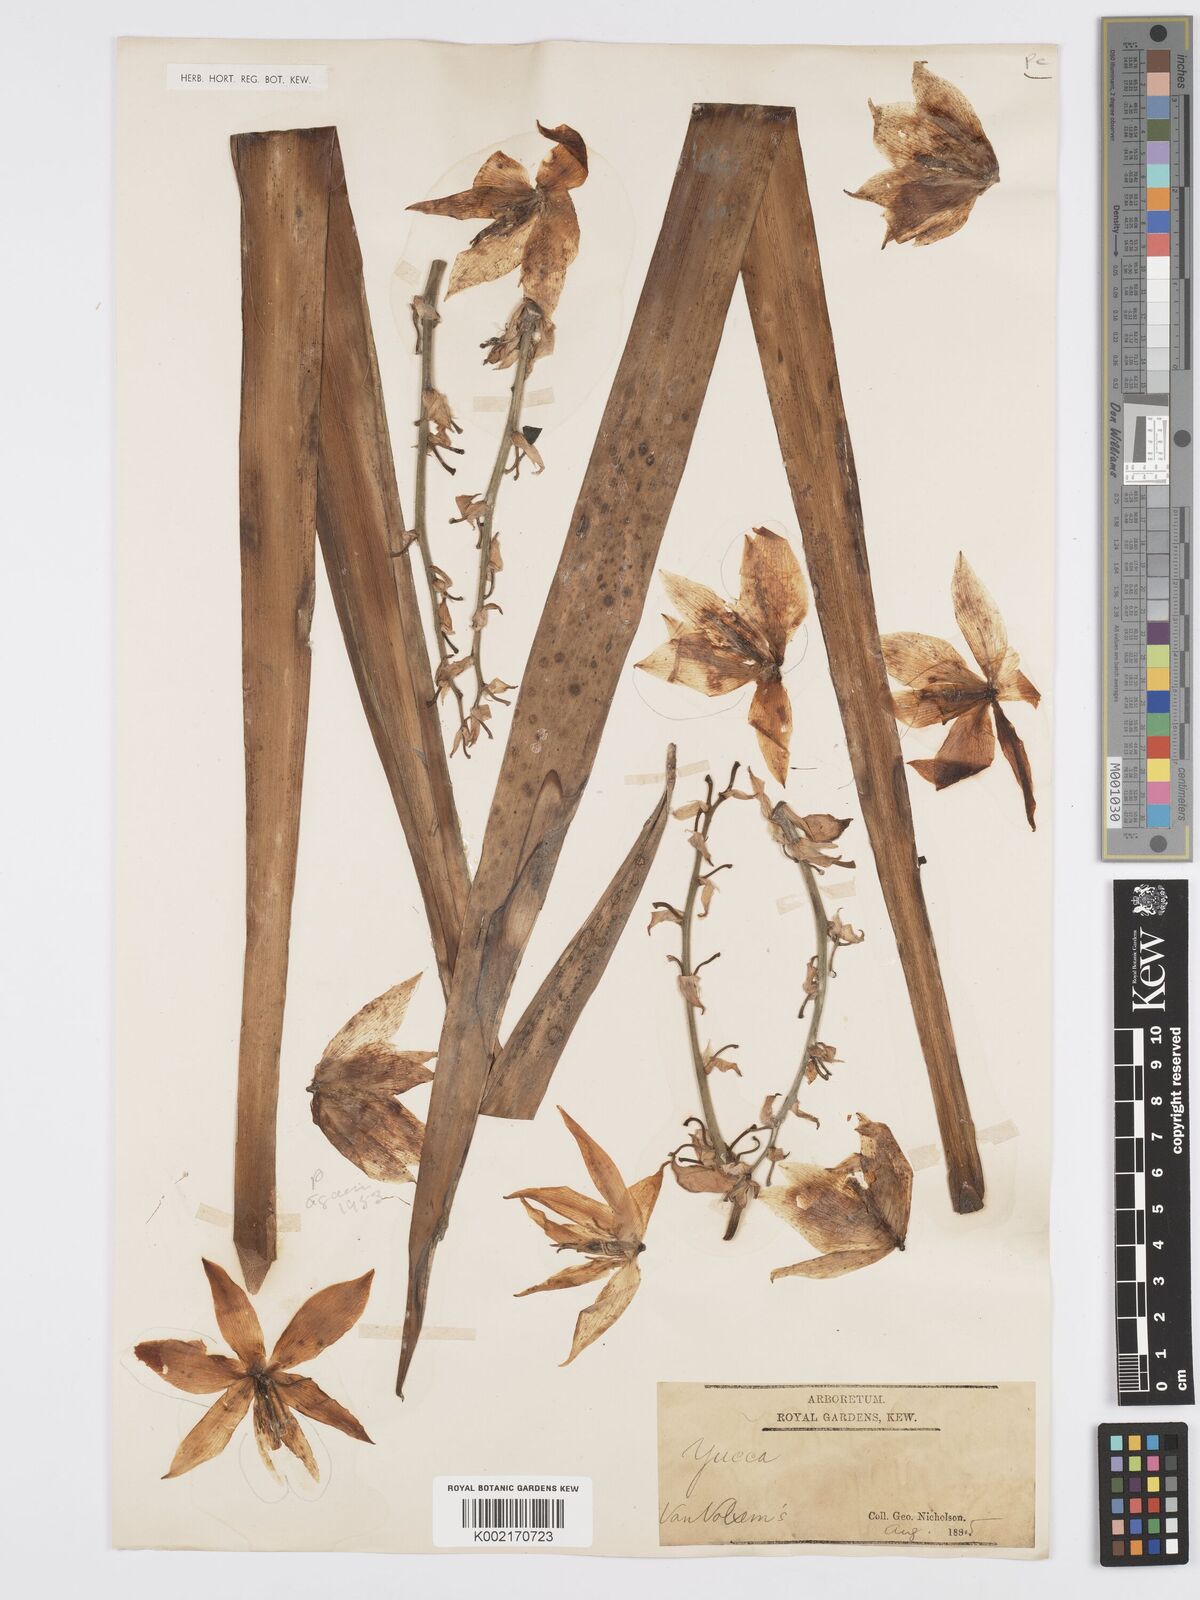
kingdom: Plantae
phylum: Tracheophyta
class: Liliopsida
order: Asparagales
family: Asparagaceae
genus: Yucca
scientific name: Yucca
